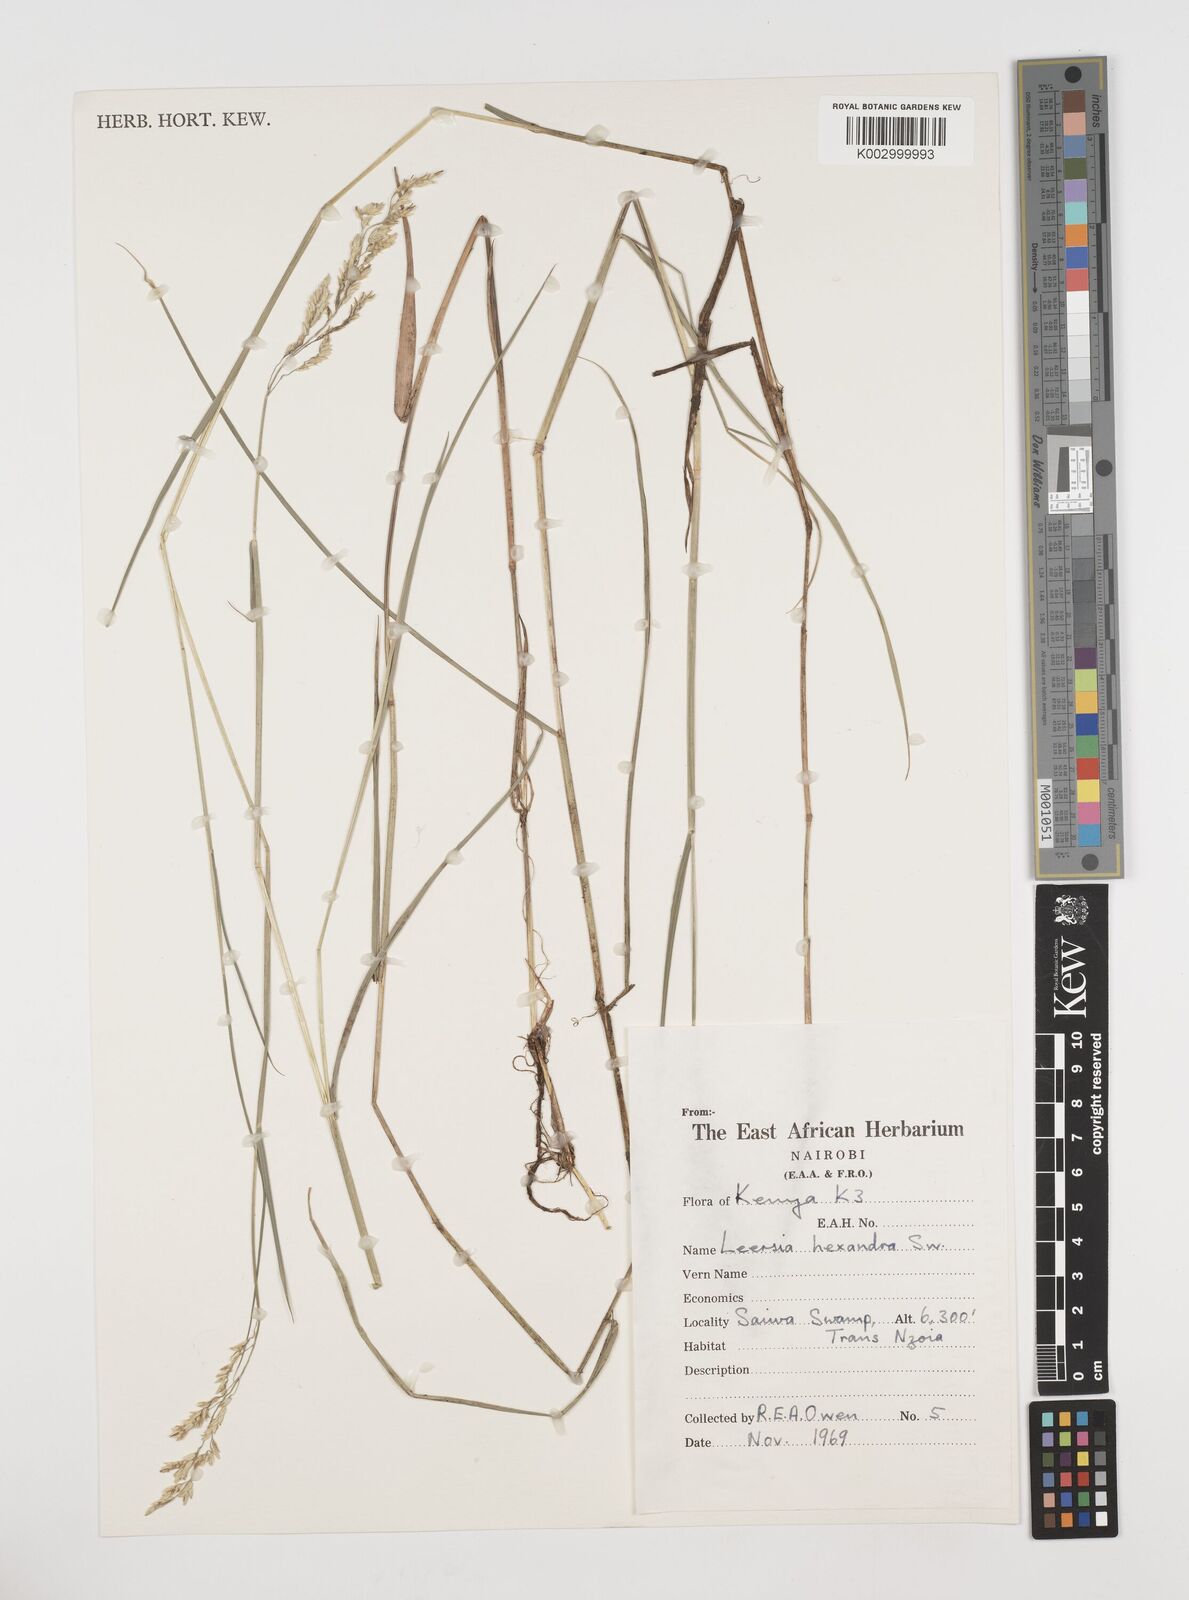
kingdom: Plantae
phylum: Tracheophyta
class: Liliopsida
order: Poales
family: Poaceae
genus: Leersia
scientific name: Leersia hexandra
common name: Southern cut grass
